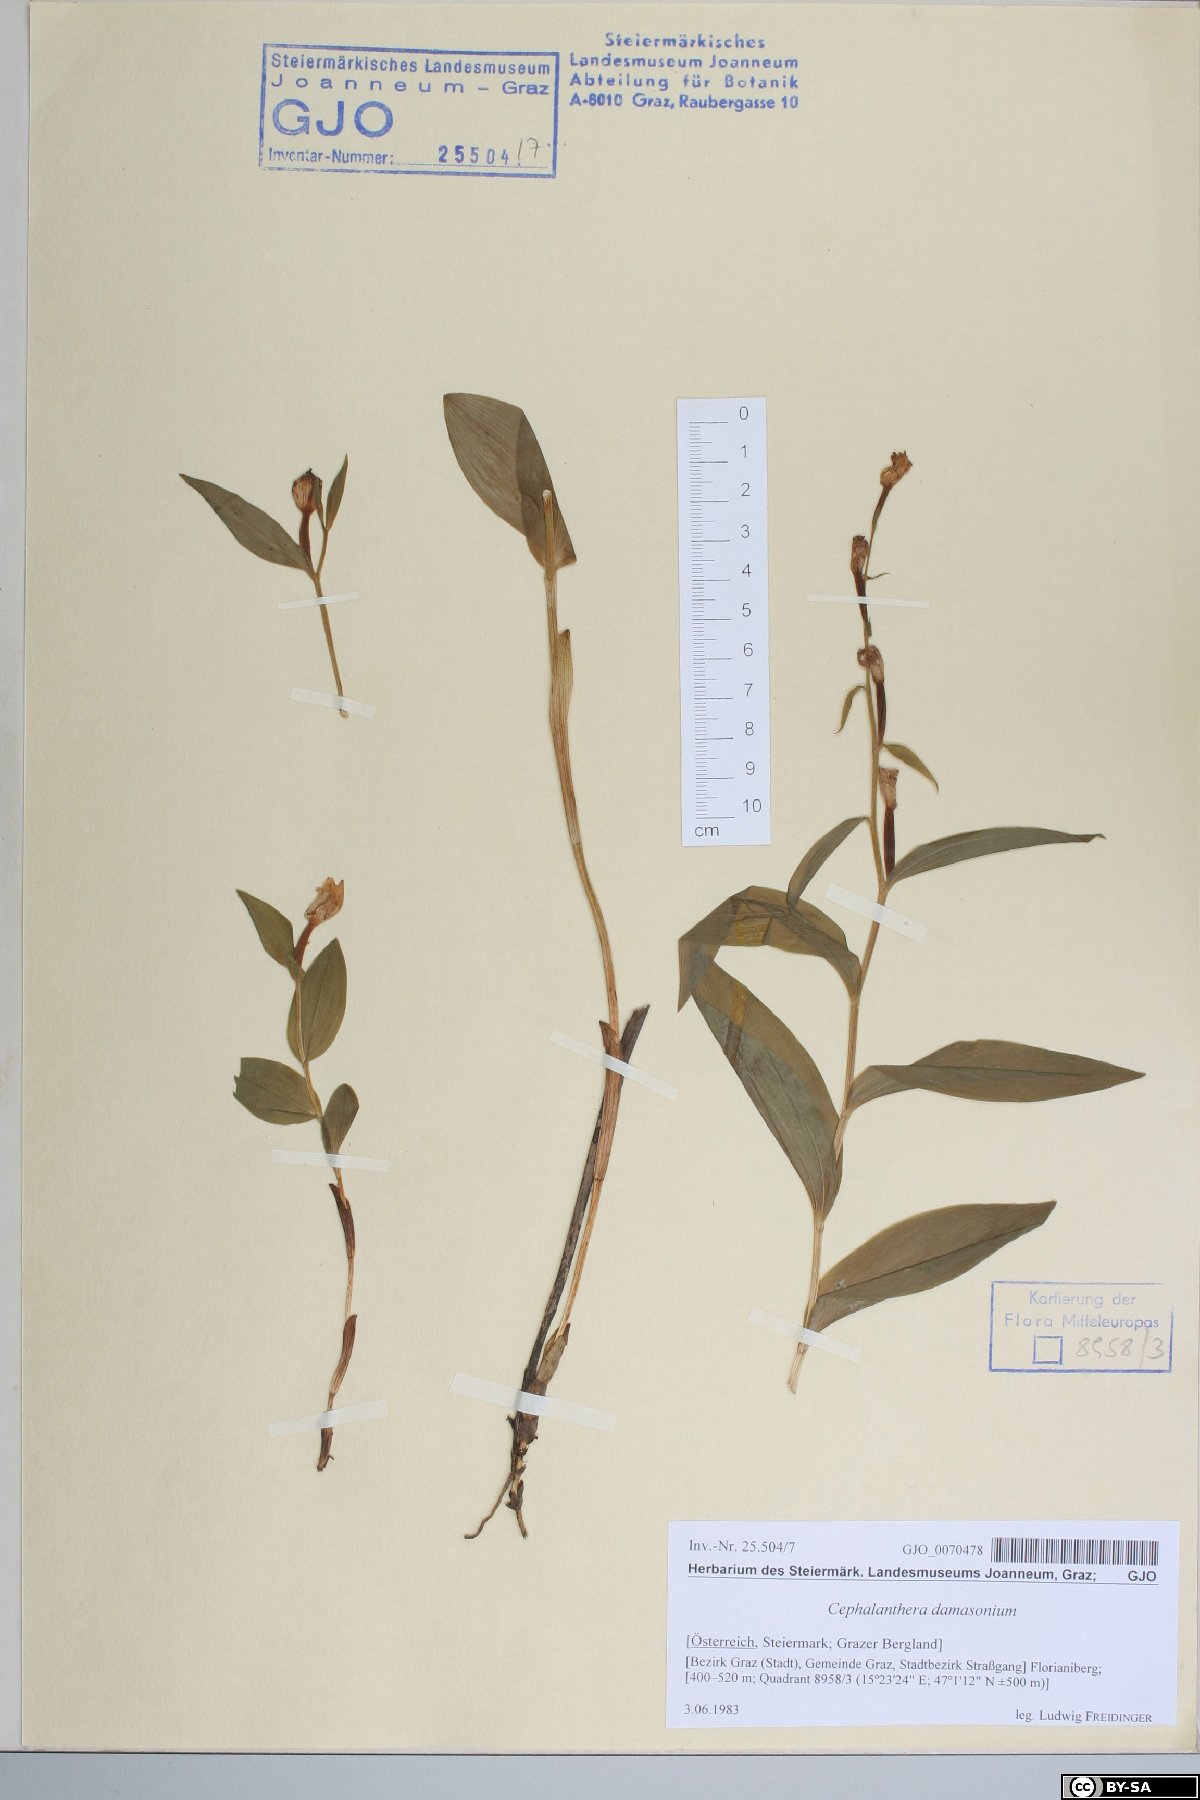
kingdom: Plantae
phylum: Tracheophyta
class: Liliopsida
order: Asparagales
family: Orchidaceae
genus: Cephalanthera
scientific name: Cephalanthera damasonium
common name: White helleborine
